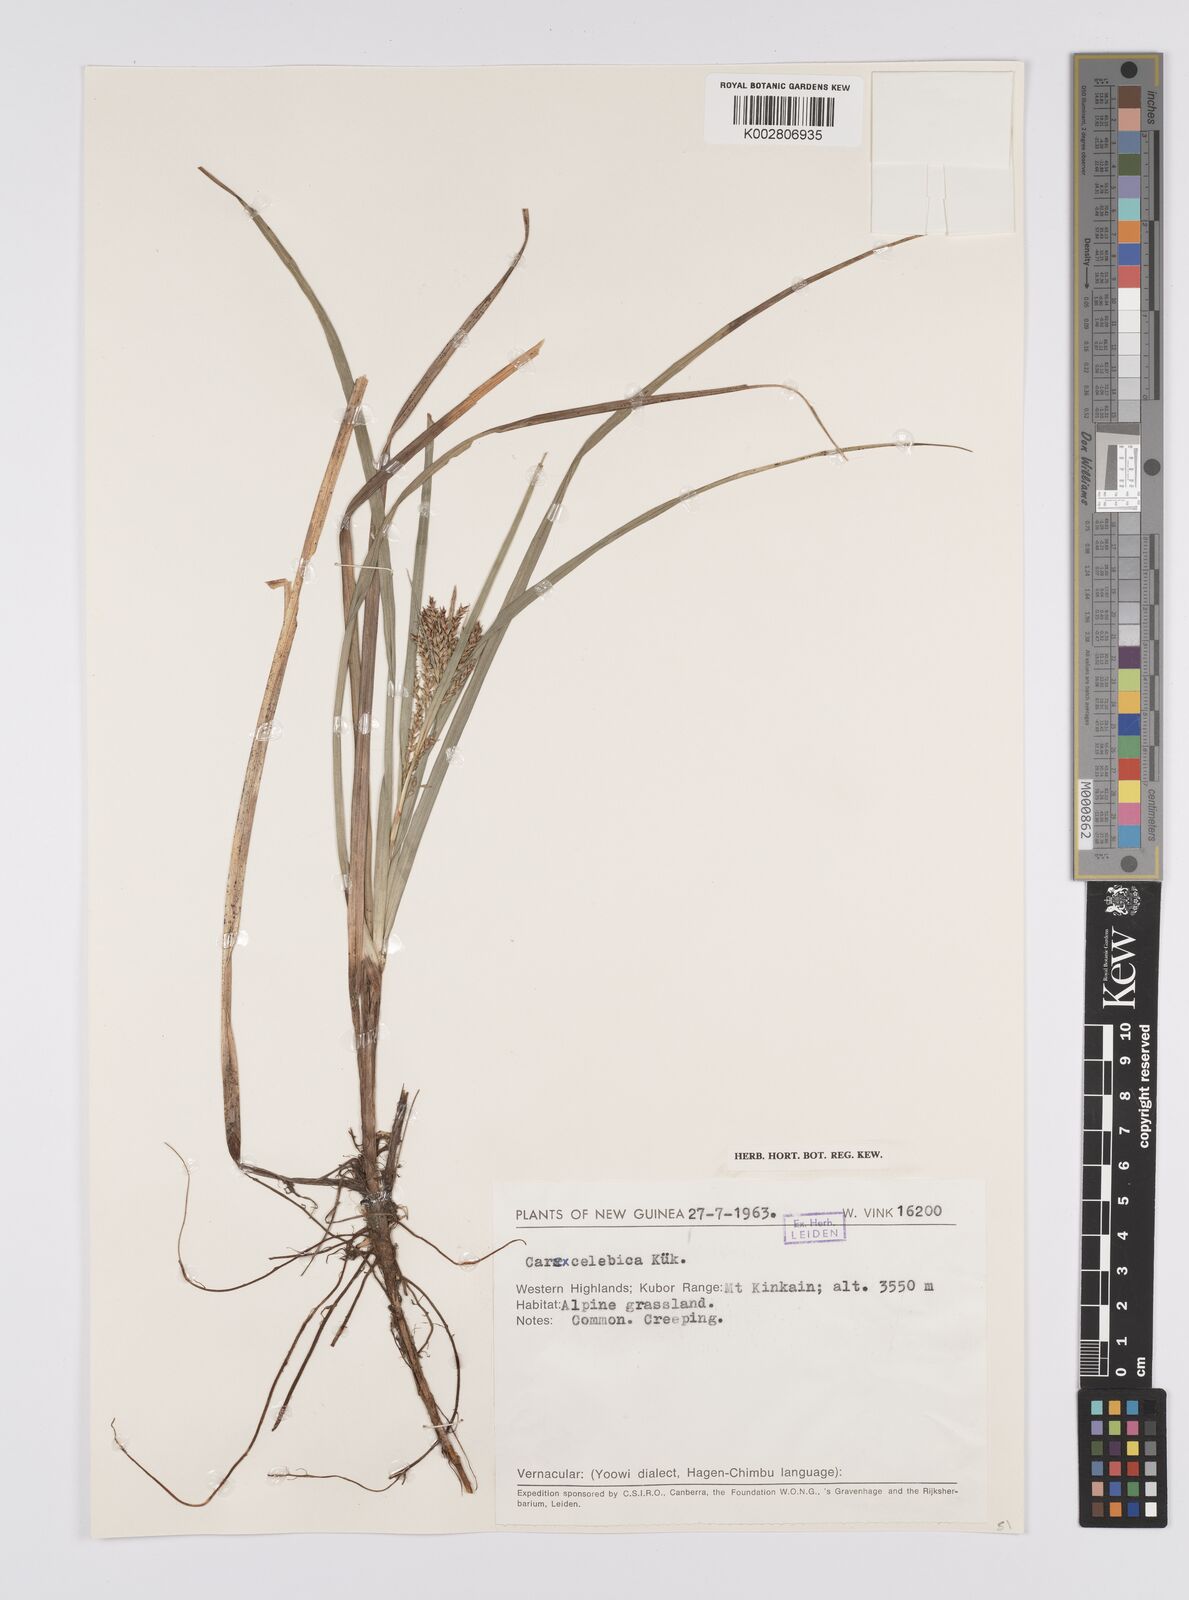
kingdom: Plantae
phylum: Tracheophyta
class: Liliopsida
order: Poales
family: Cyperaceae
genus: Carex
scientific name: Carex celebica
